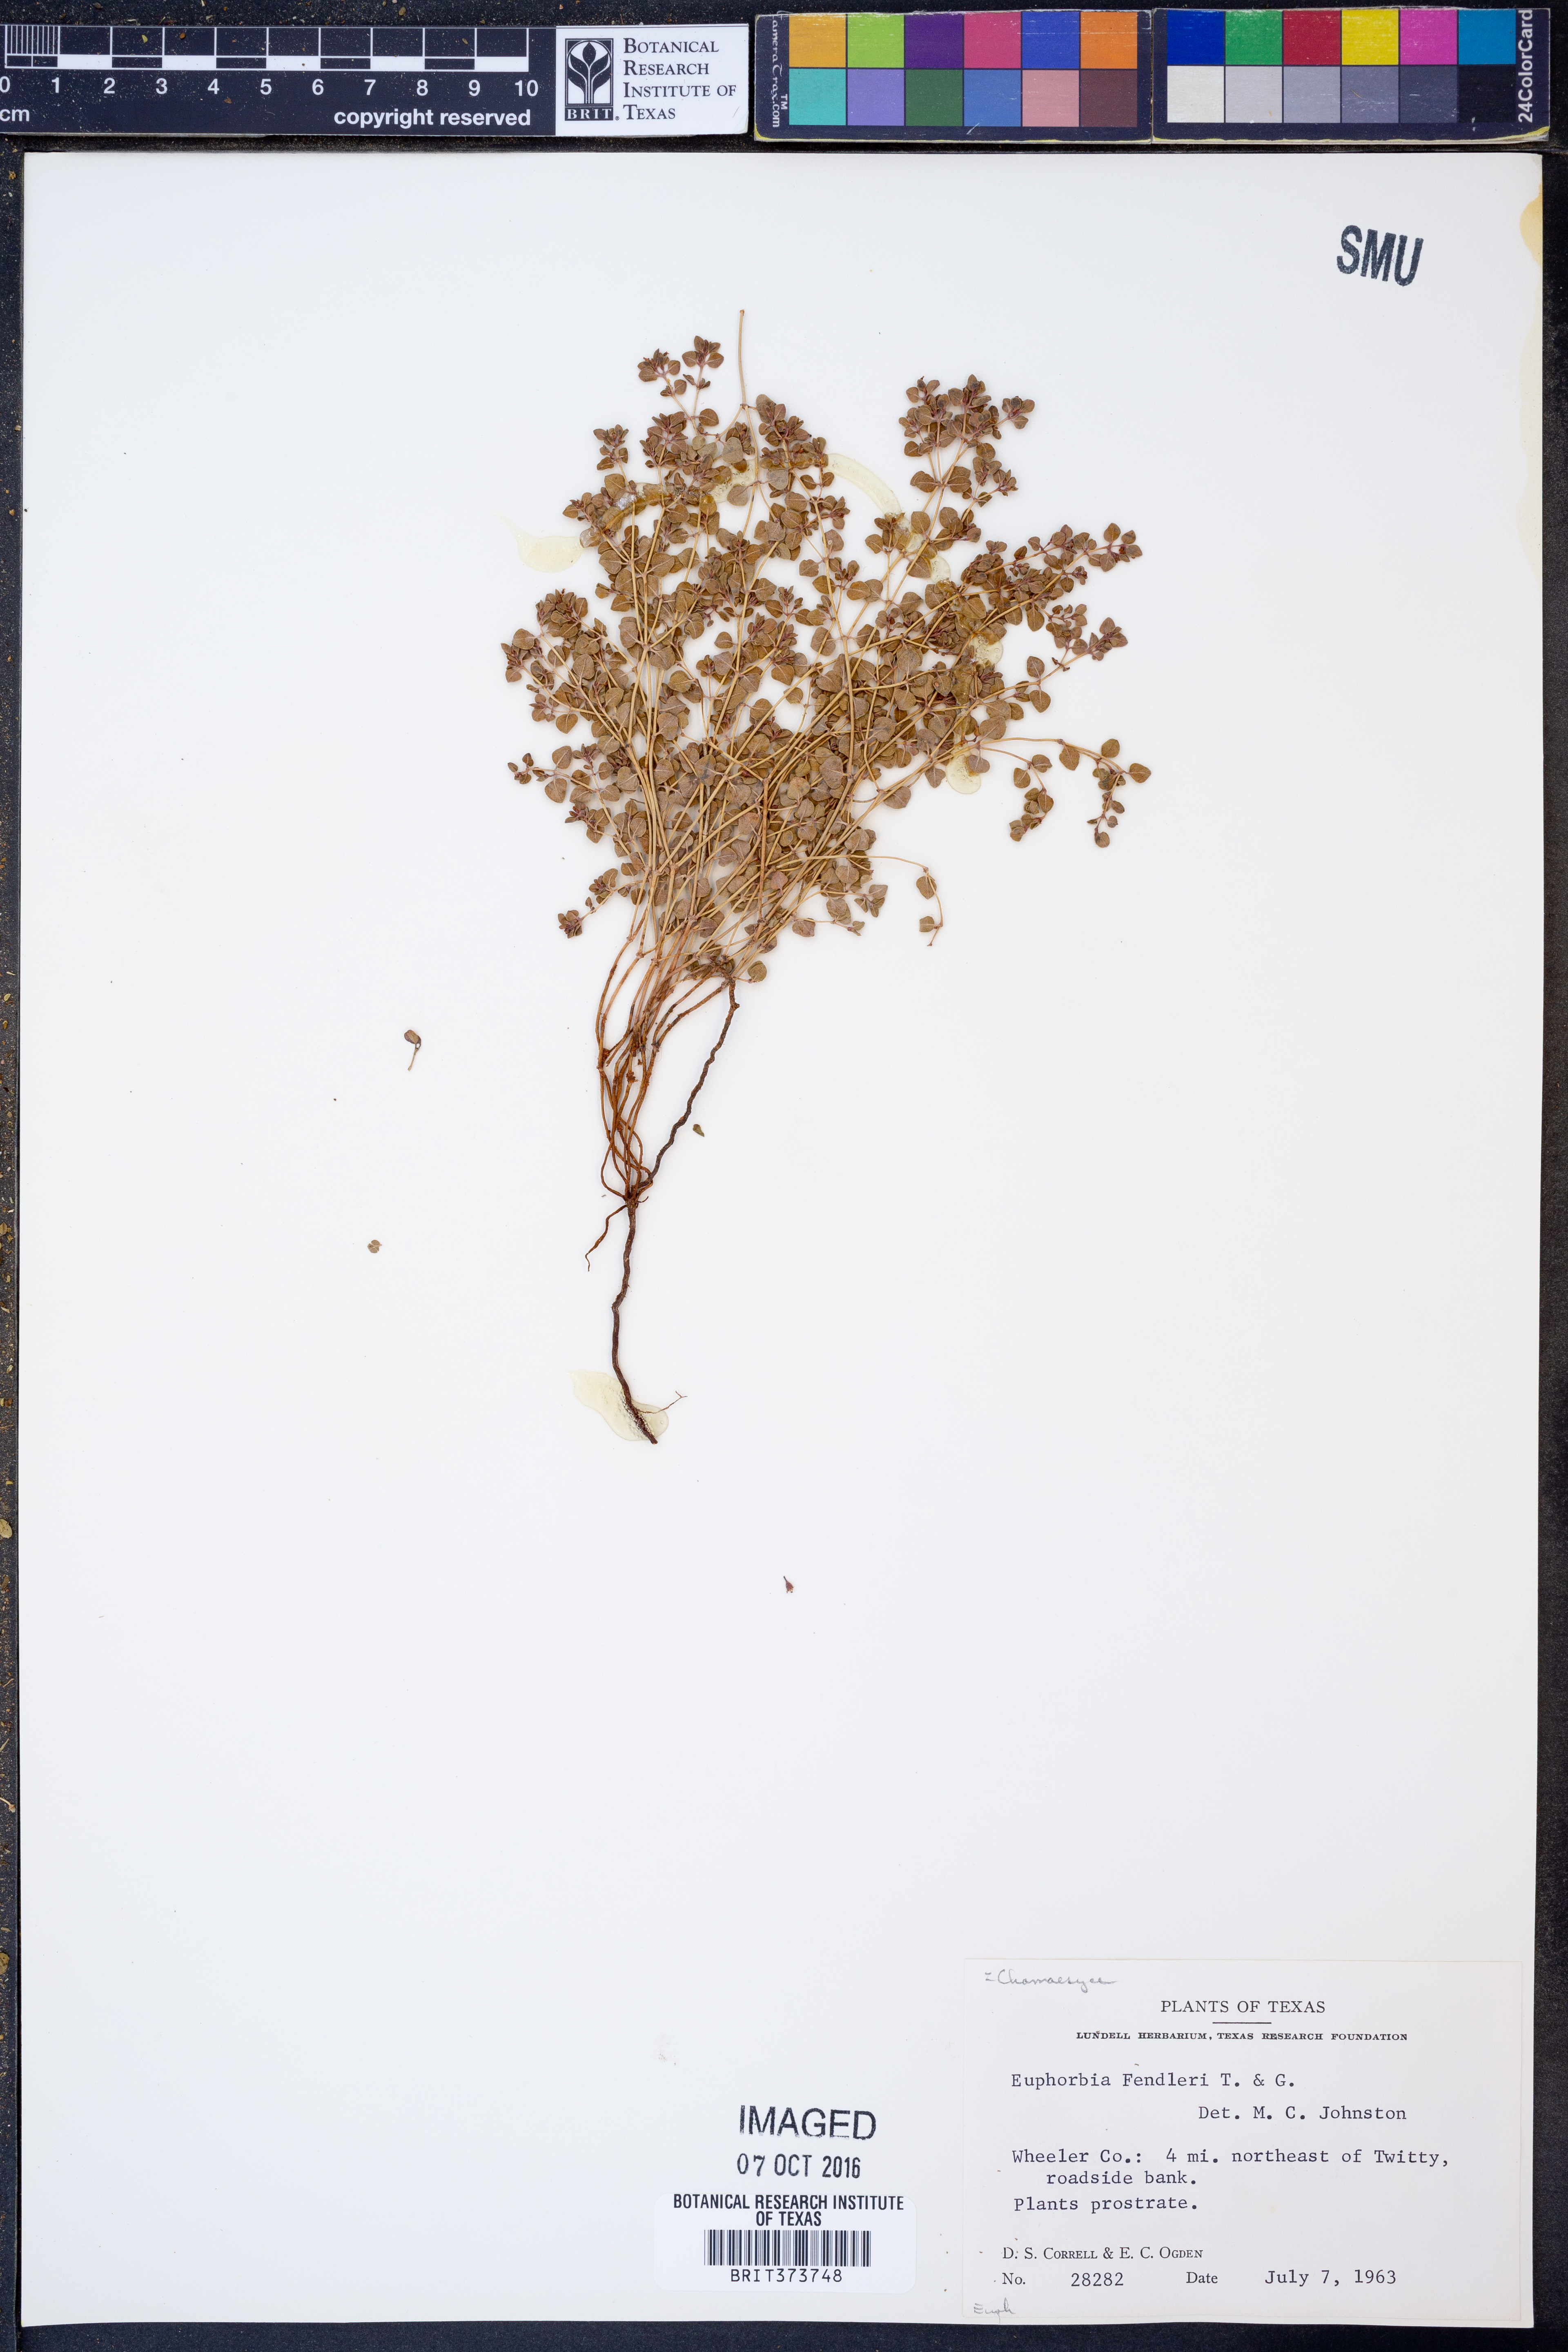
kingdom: Plantae
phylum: Tracheophyta
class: Magnoliopsida
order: Malpighiales
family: Euphorbiaceae
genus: Euphorbia
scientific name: Euphorbia fendleri
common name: Fendler's euphorbia
